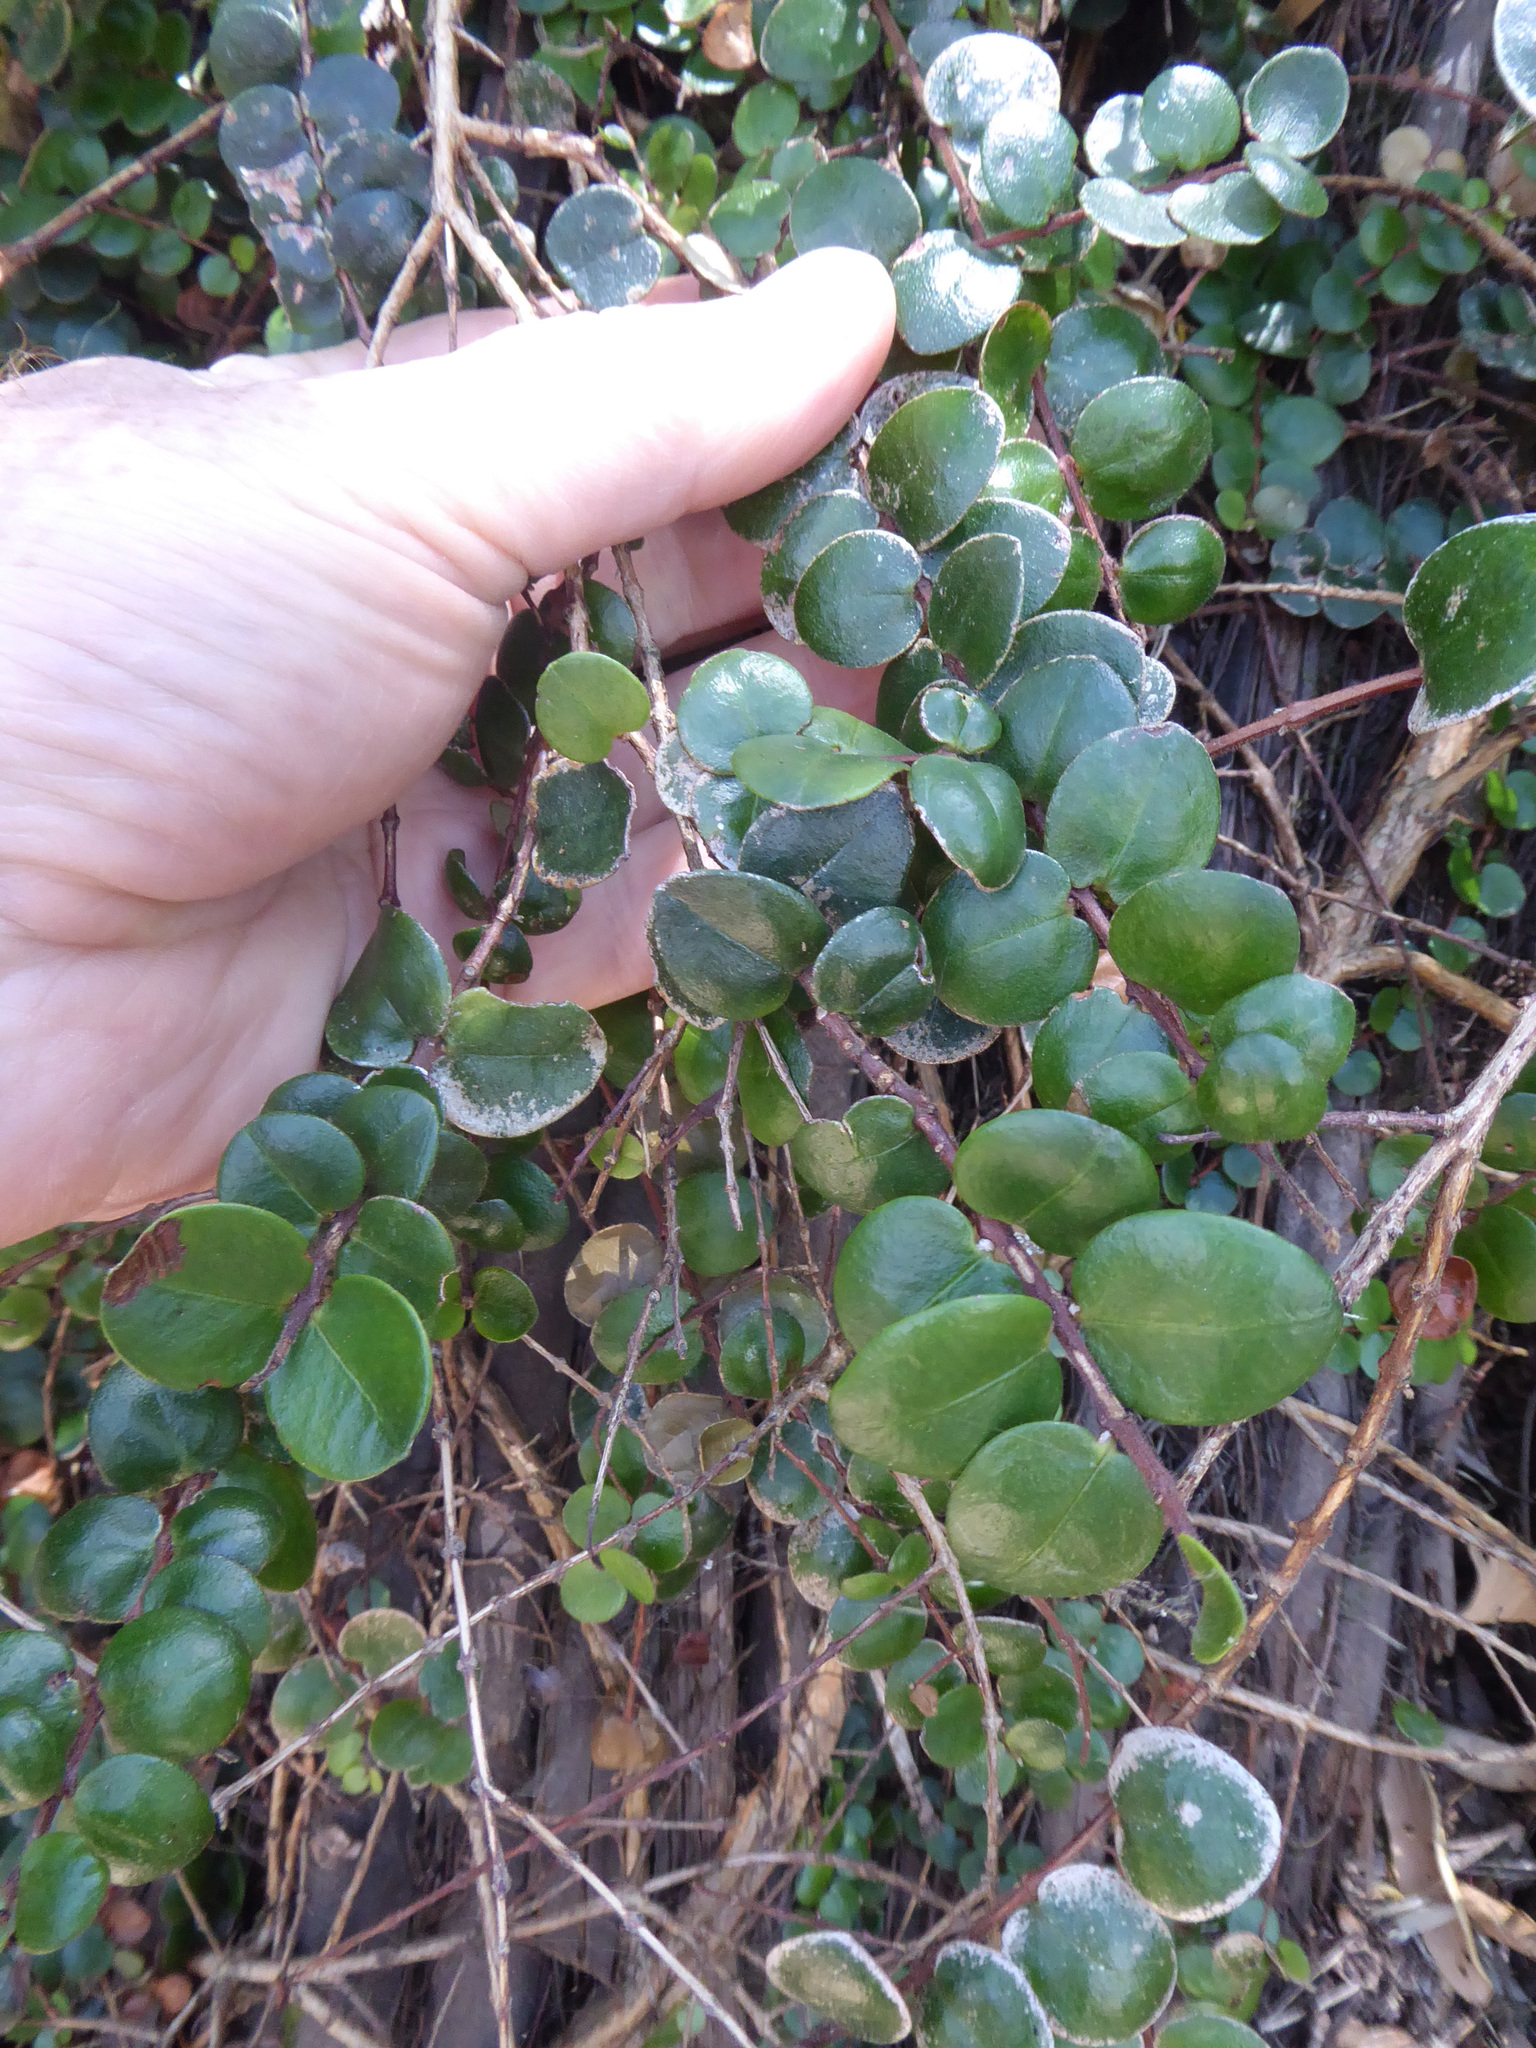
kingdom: Plantae
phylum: Tracheophyta
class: Magnoliopsida
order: Myrtales
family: Myrtaceae
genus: Metrosideros
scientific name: Metrosideros carminea
